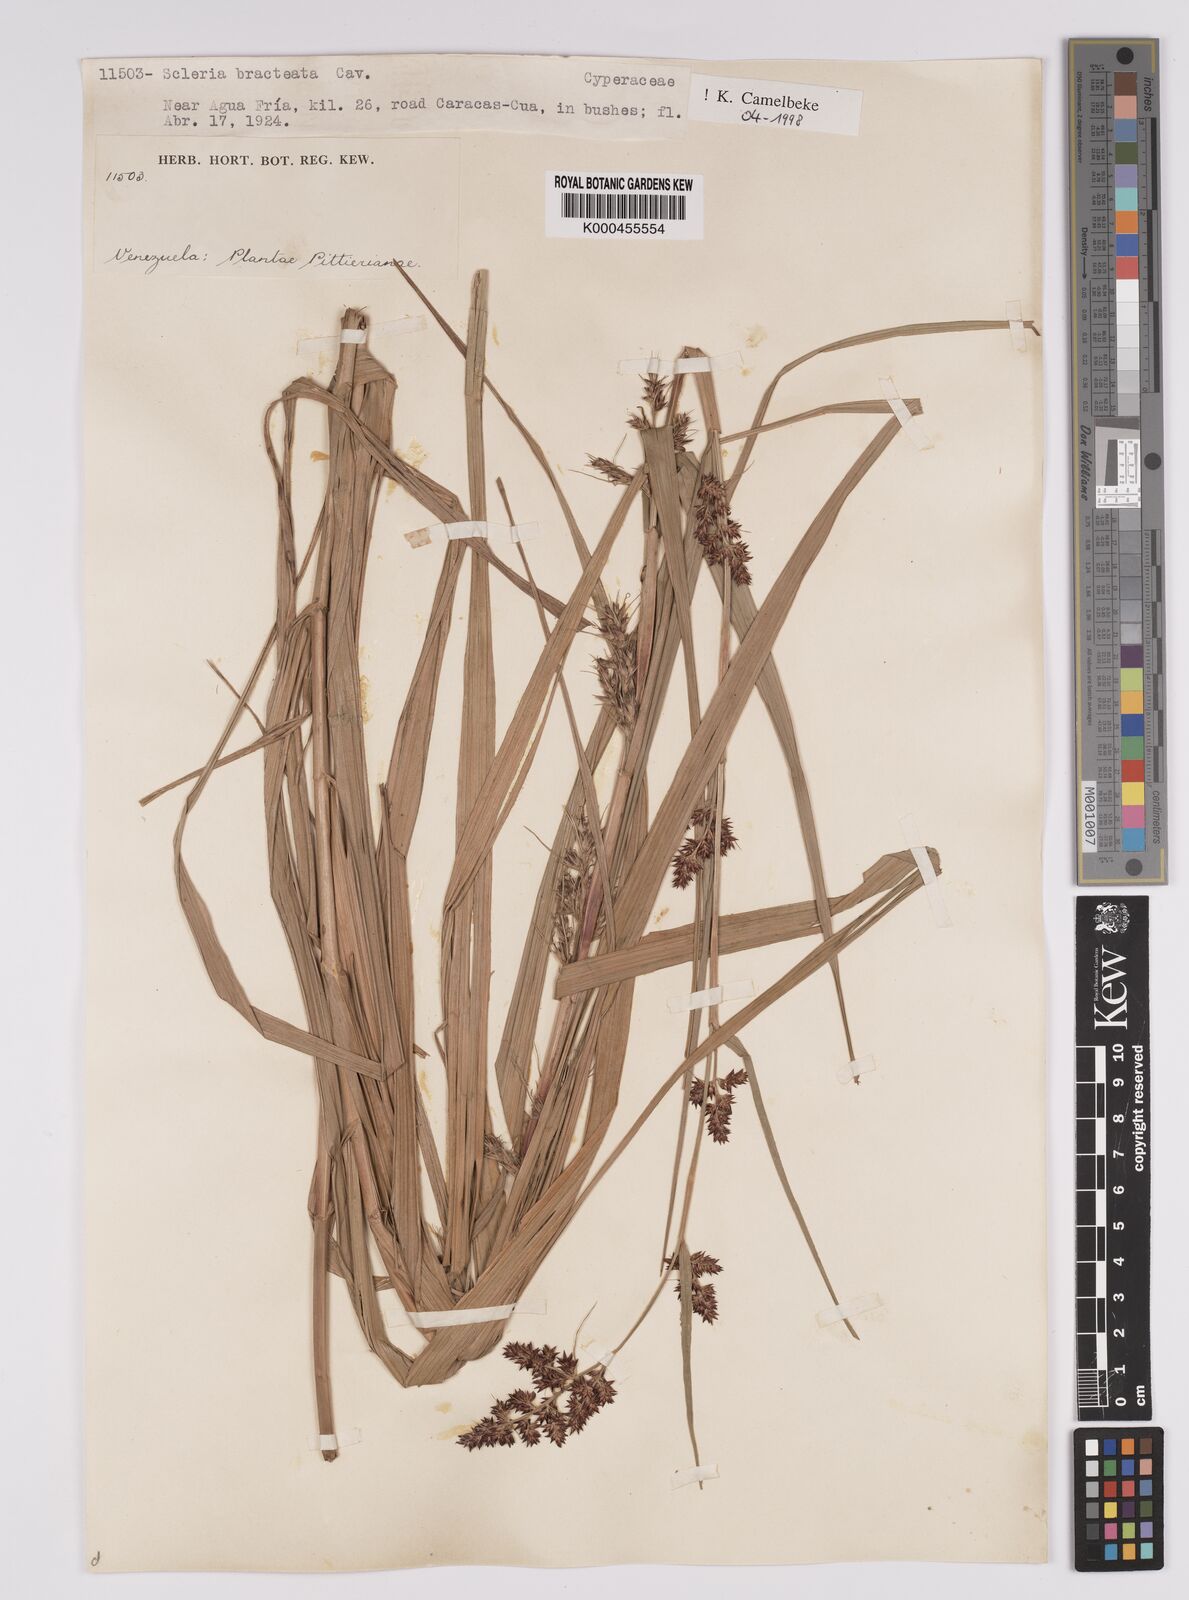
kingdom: Plantae
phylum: Tracheophyta
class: Liliopsida
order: Poales
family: Cyperaceae
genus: Scleria
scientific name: Scleria bracteata
